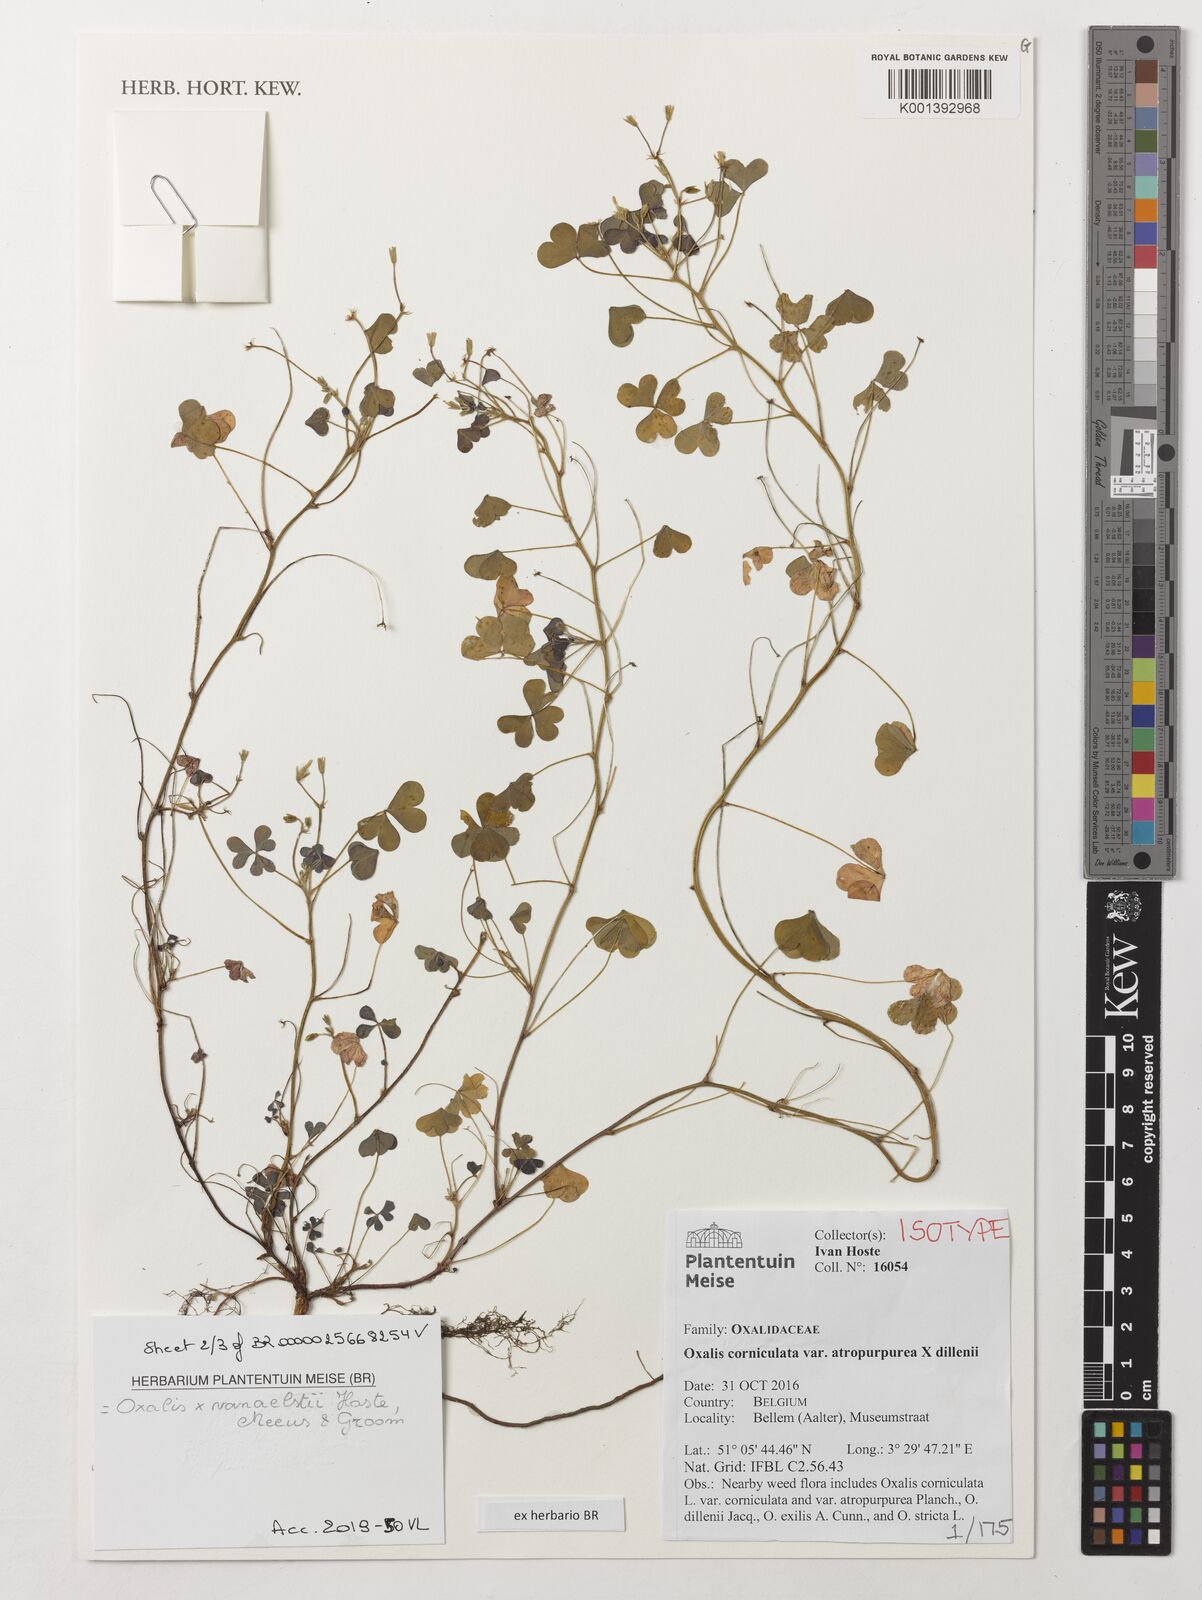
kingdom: Plantae
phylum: Tracheophyta
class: Magnoliopsida
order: Oxalidales
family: Oxalidaceae
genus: Oxalis
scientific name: Oxalis corniculata
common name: Procumbent yellow-sorrel
